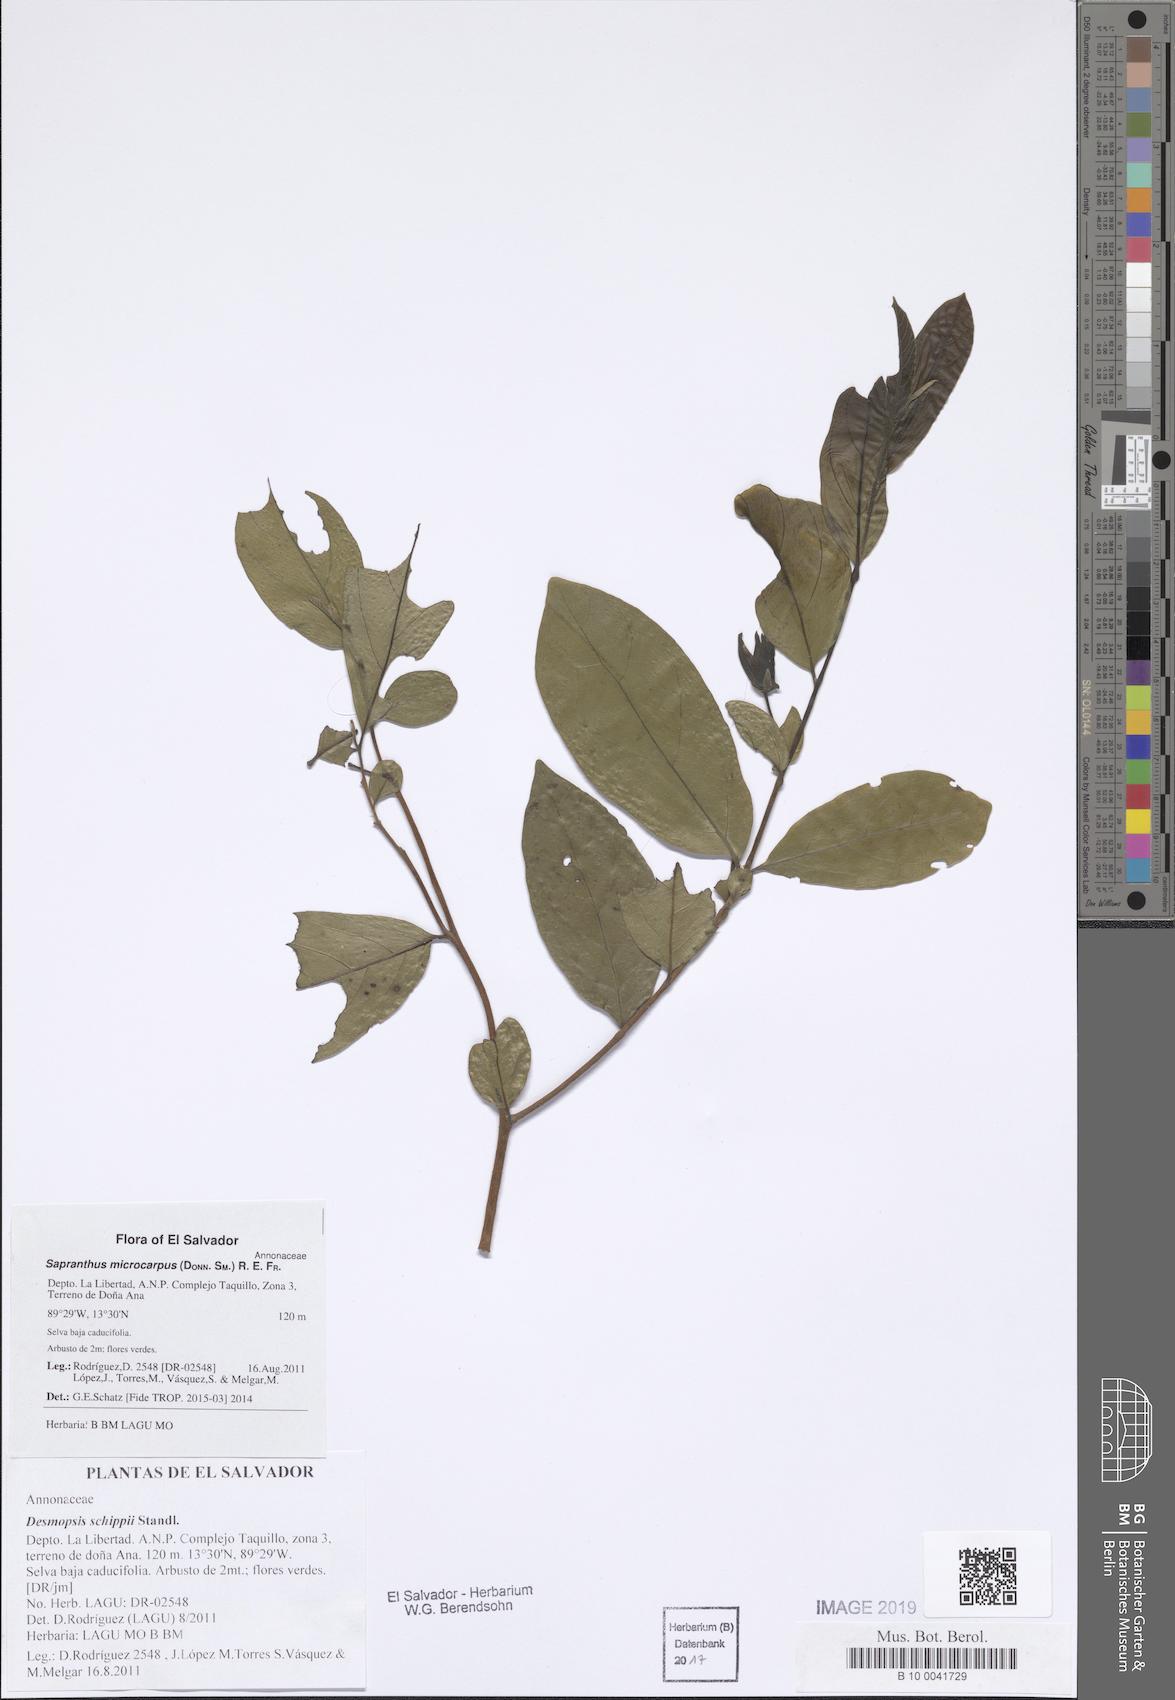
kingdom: Plantae
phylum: Tracheophyta
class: Magnoliopsida
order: Magnoliales
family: Annonaceae
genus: Sapranthus
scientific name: Sapranthus microcarpus
